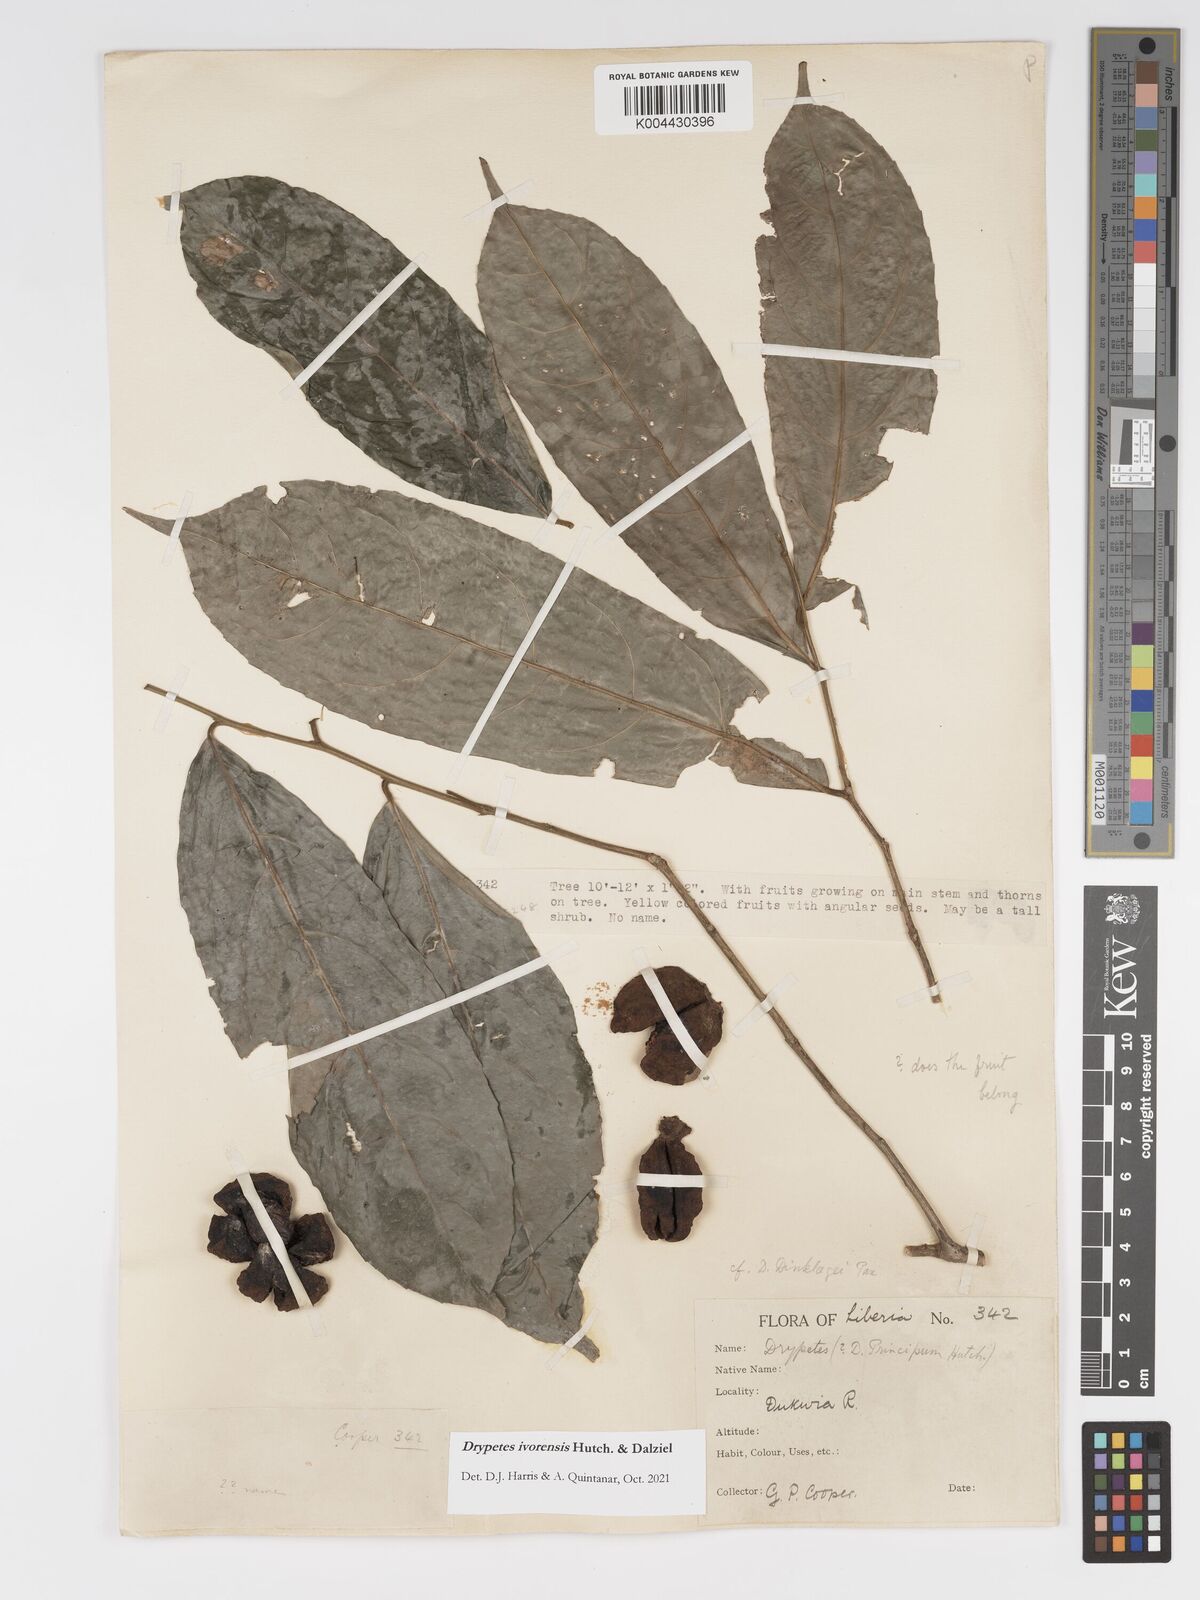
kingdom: Plantae
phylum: Tracheophyta
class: Magnoliopsida
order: Malpighiales
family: Putranjivaceae
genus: Drypetes
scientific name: Drypetes ivorensis
